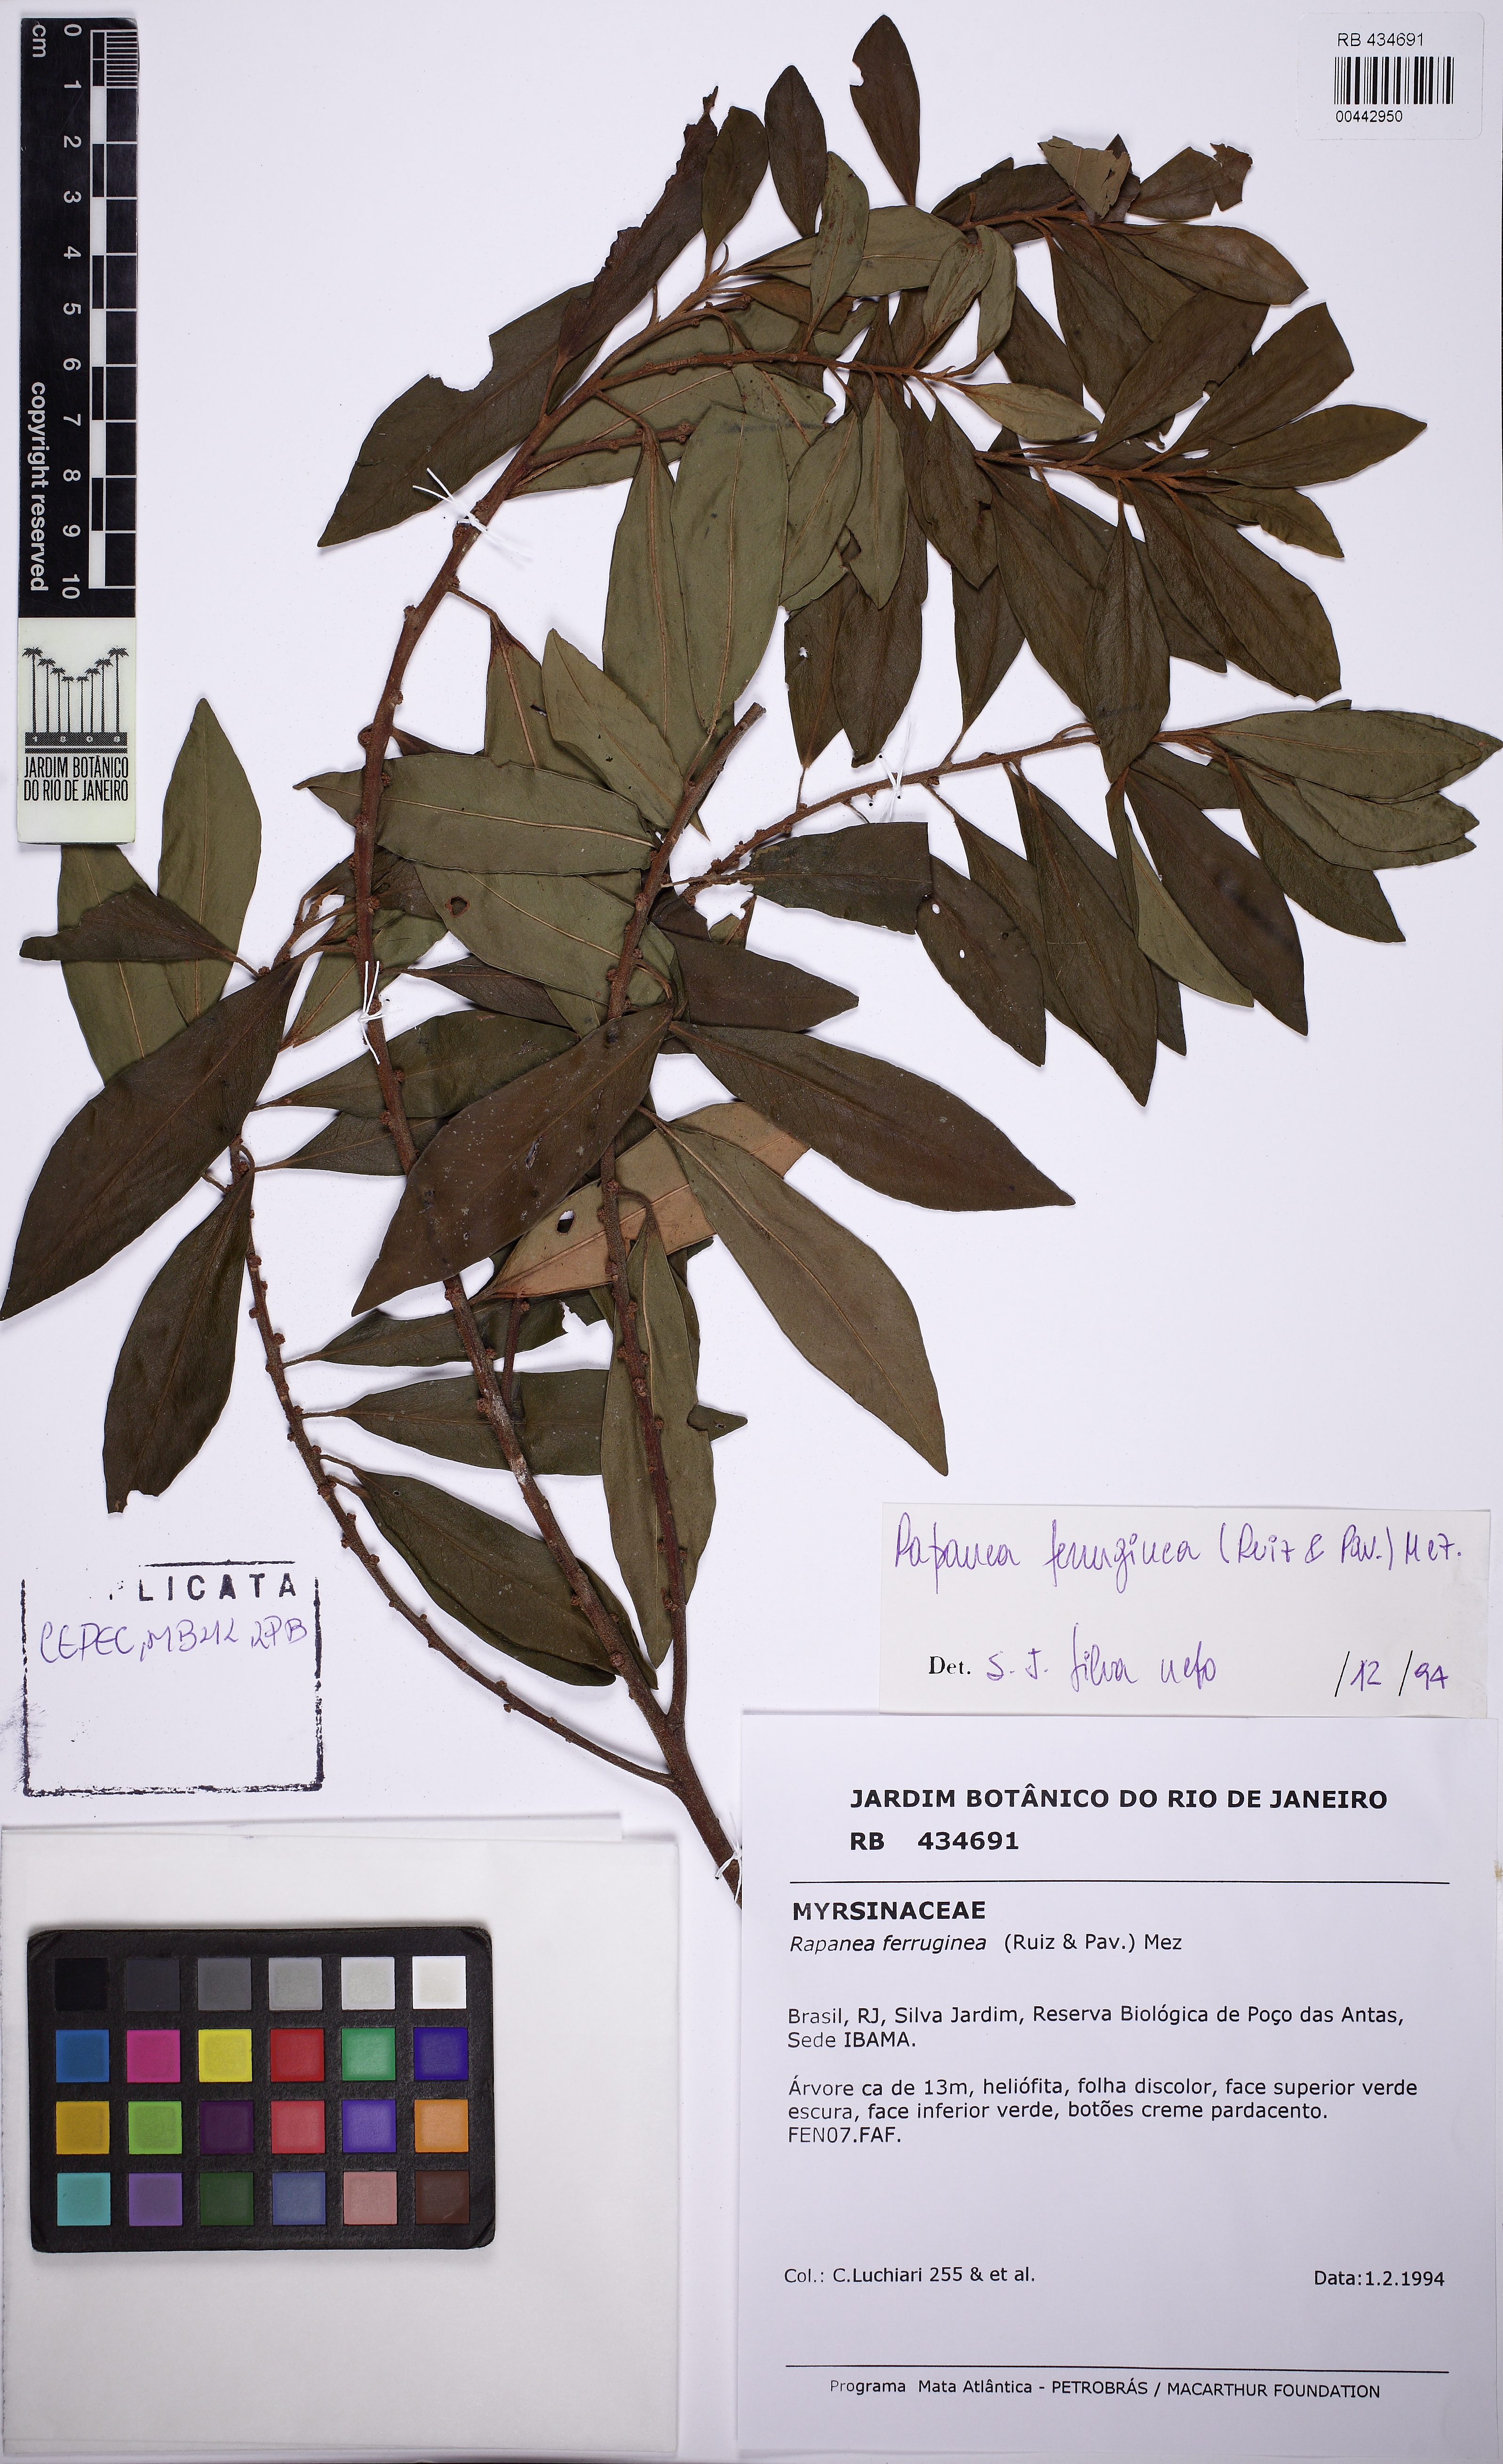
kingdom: Plantae
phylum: Tracheophyta
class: Magnoliopsida
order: Ericales
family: Primulaceae
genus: Myrsine
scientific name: Myrsine coriacea
